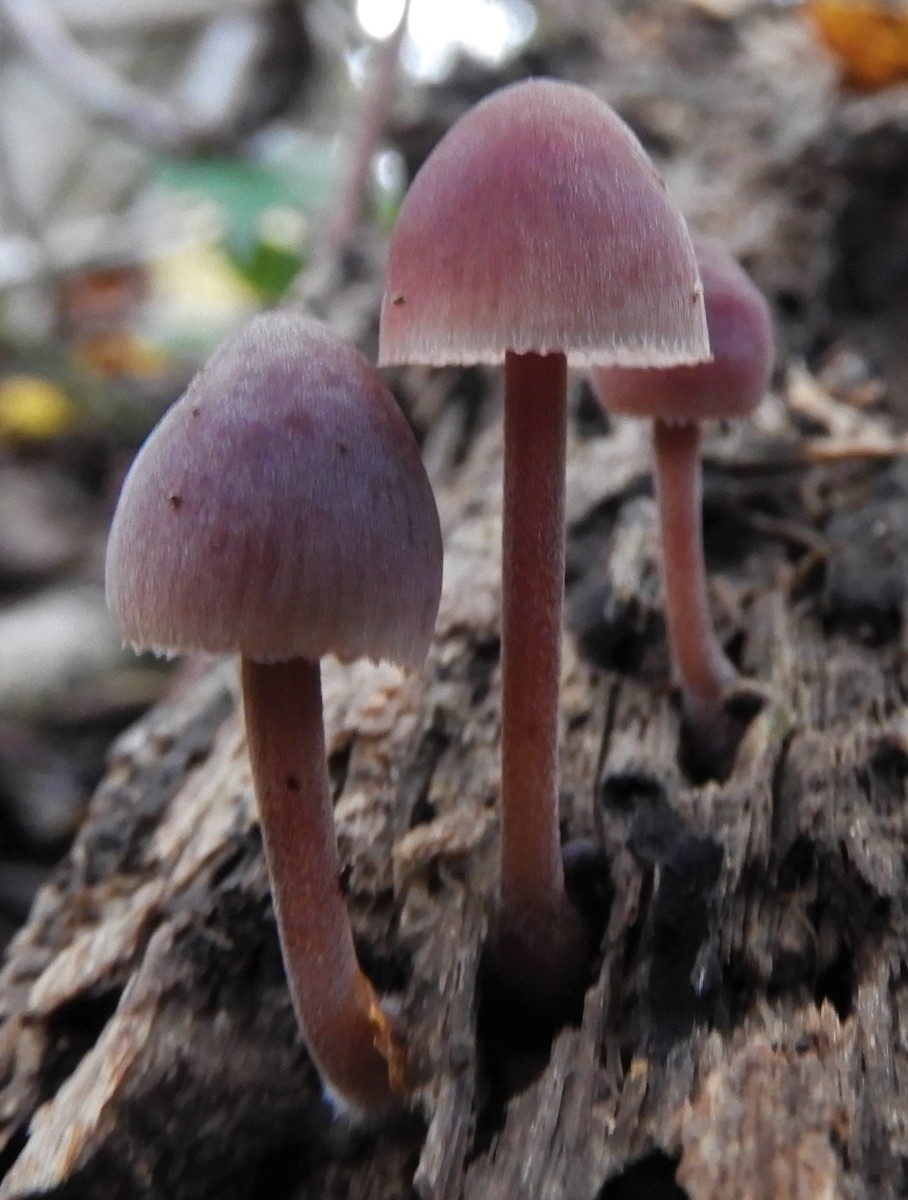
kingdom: Fungi
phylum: Basidiomycota
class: Agaricomycetes
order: Agaricales
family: Mycenaceae
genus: Mycena
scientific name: Mycena haematopus
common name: blødende huesvamp
